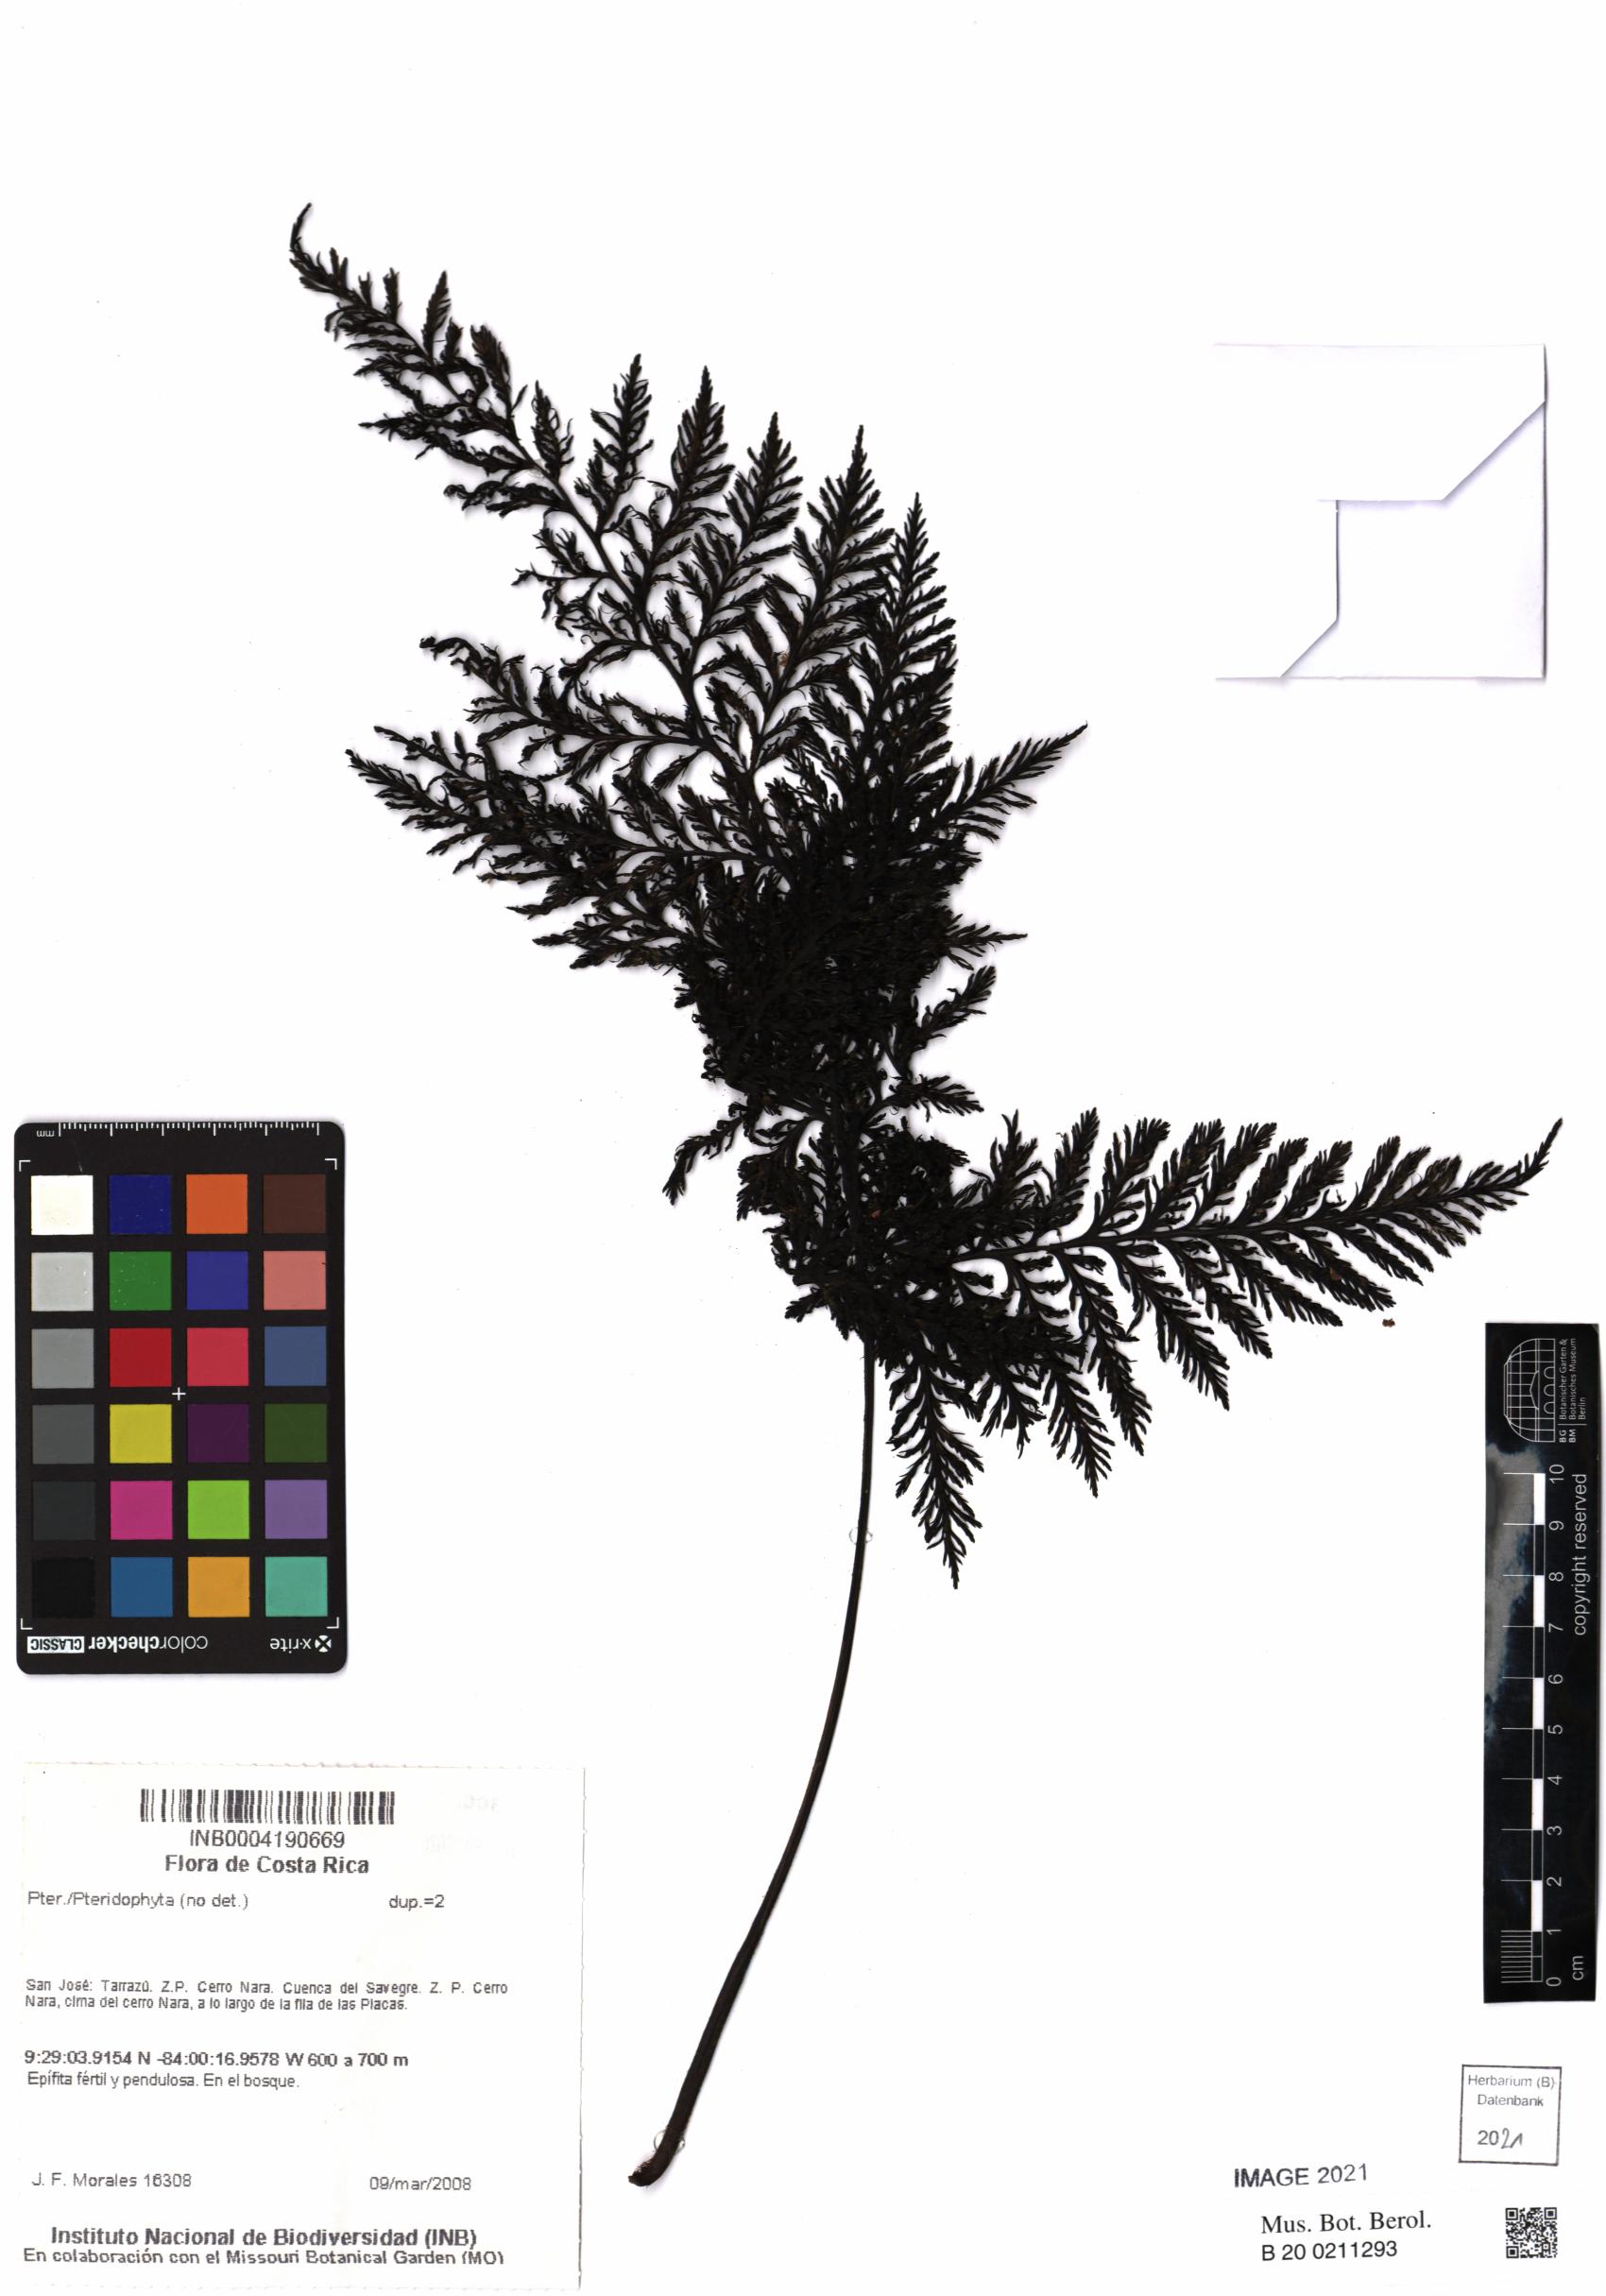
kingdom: Plantae
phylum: Tracheophyta
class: Polypodiopsida
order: Hymenophyllales
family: Hymenophyllaceae
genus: Trichomanes
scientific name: Trichomanes
